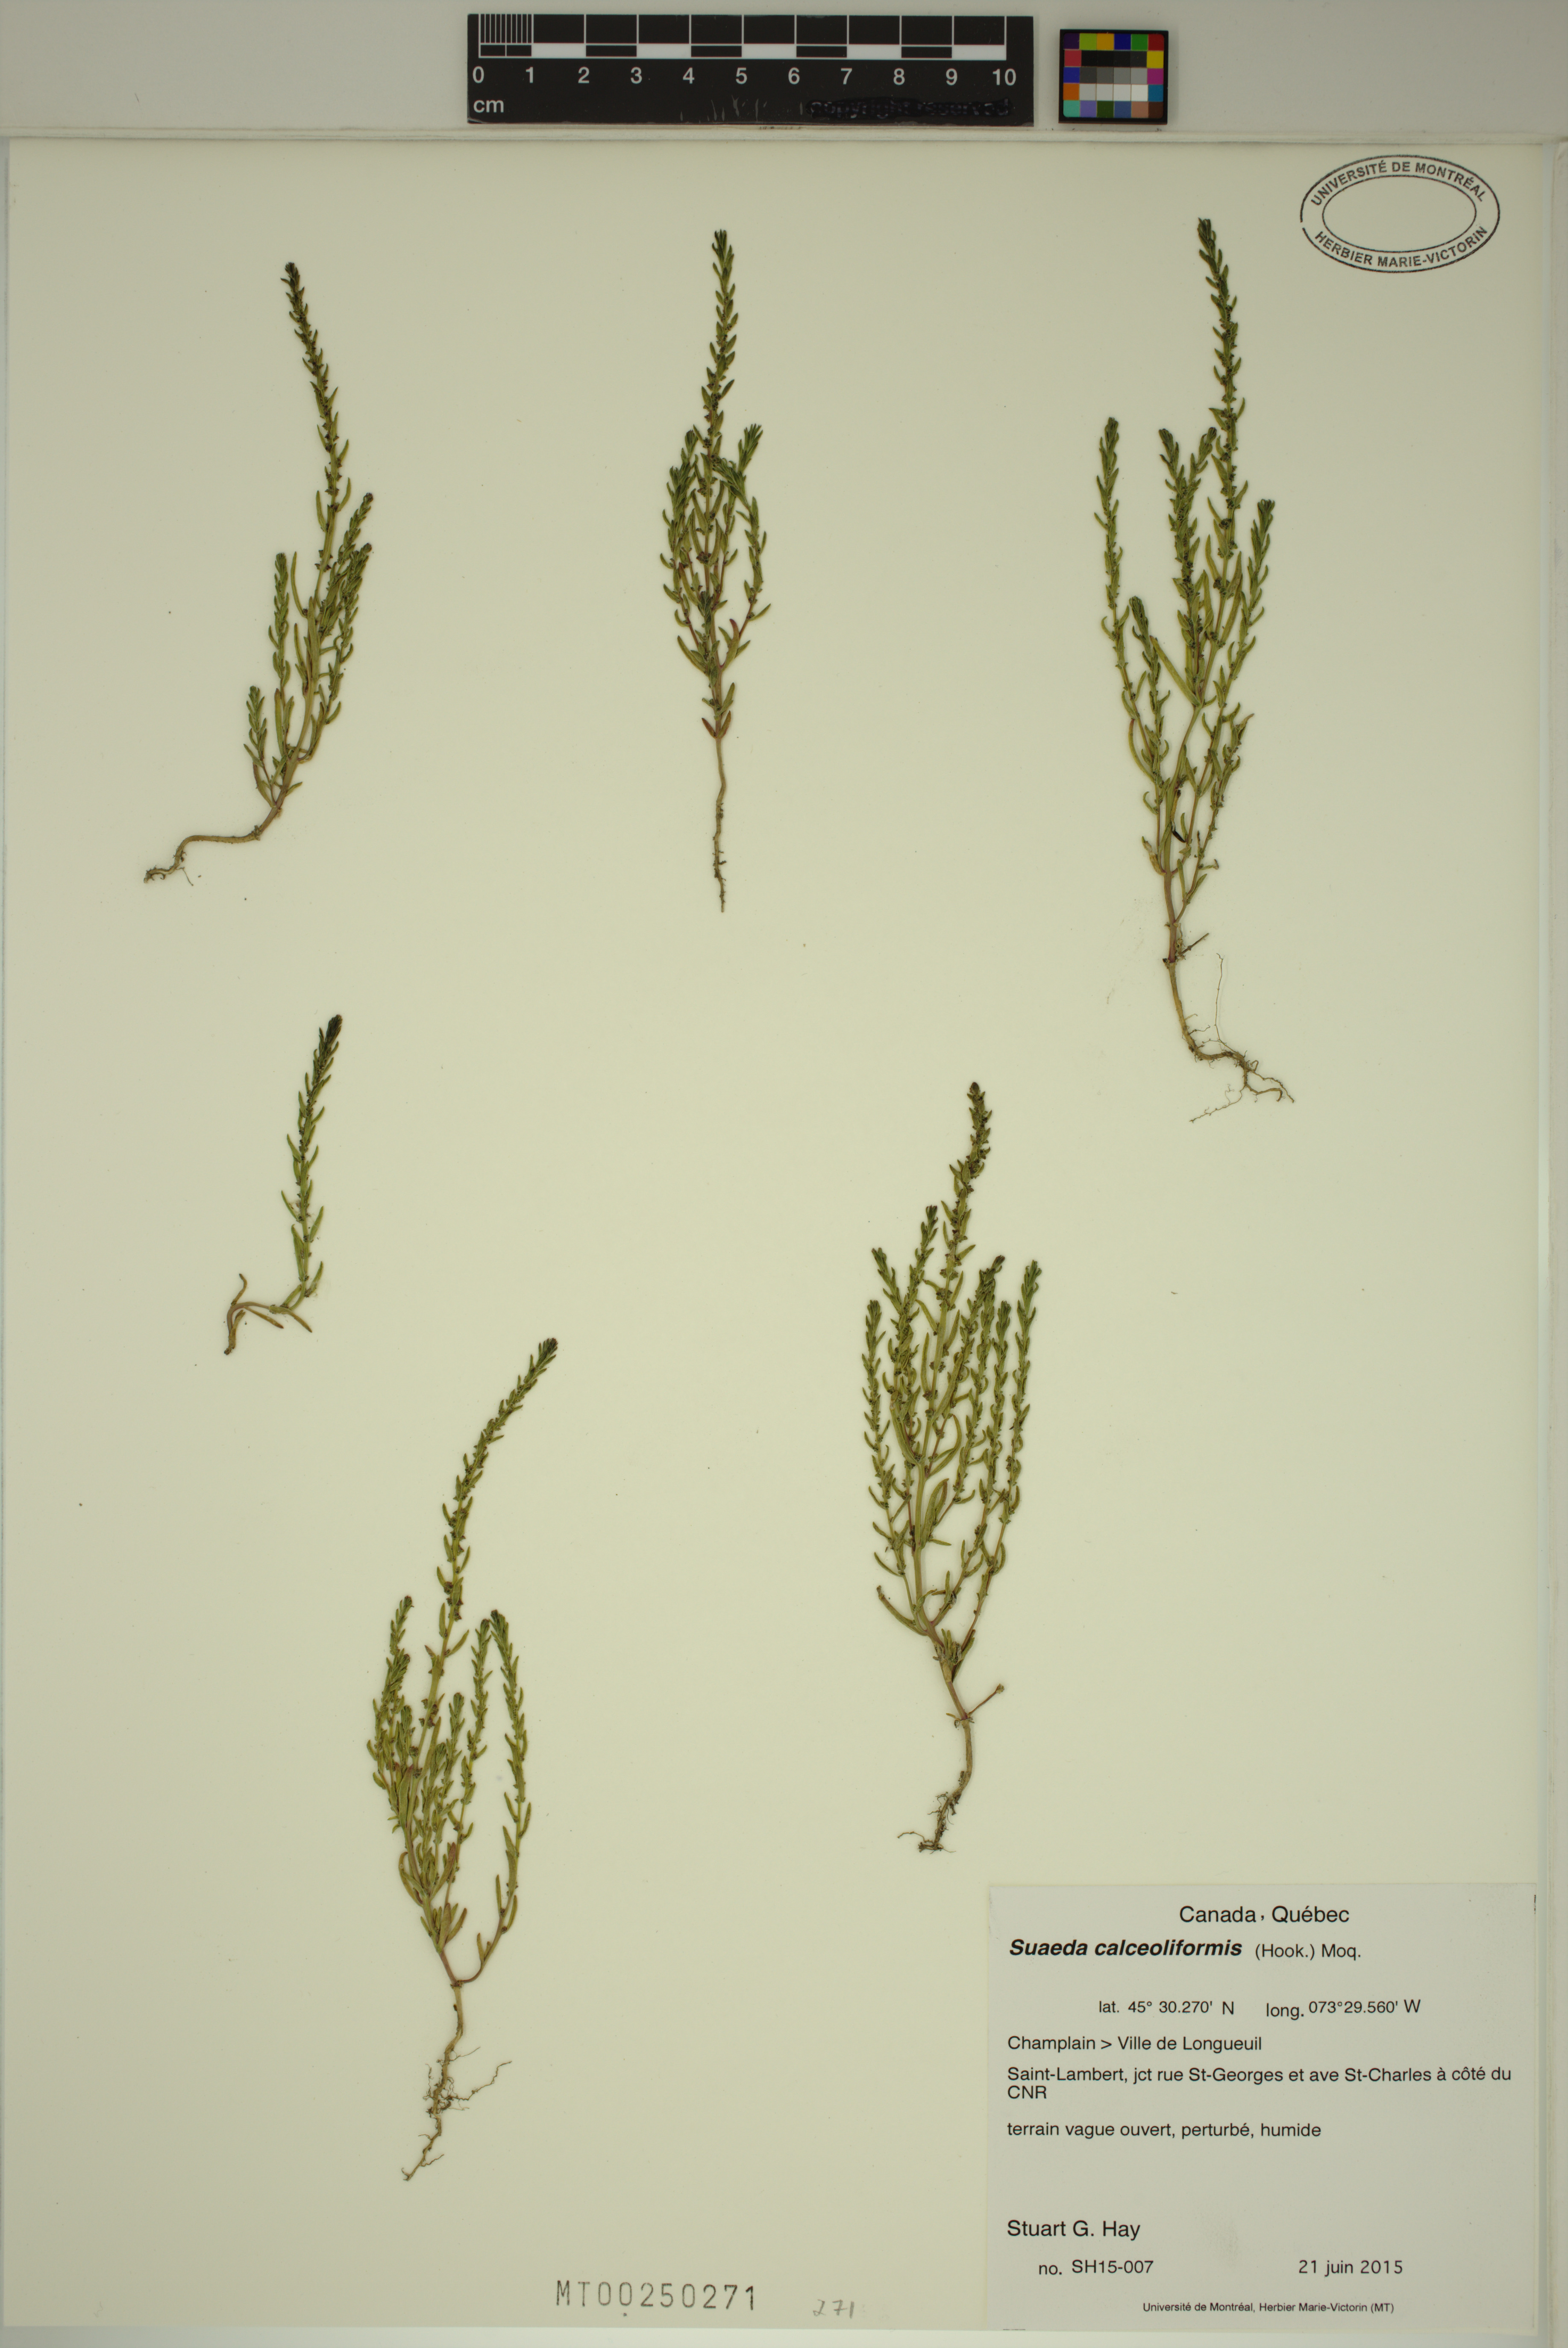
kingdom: Plantae
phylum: Tracheophyta
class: Magnoliopsida
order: Caryophyllales
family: Amaranthaceae
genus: Suaeda
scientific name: Suaeda calceoliformis
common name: Pursh's seepweed
